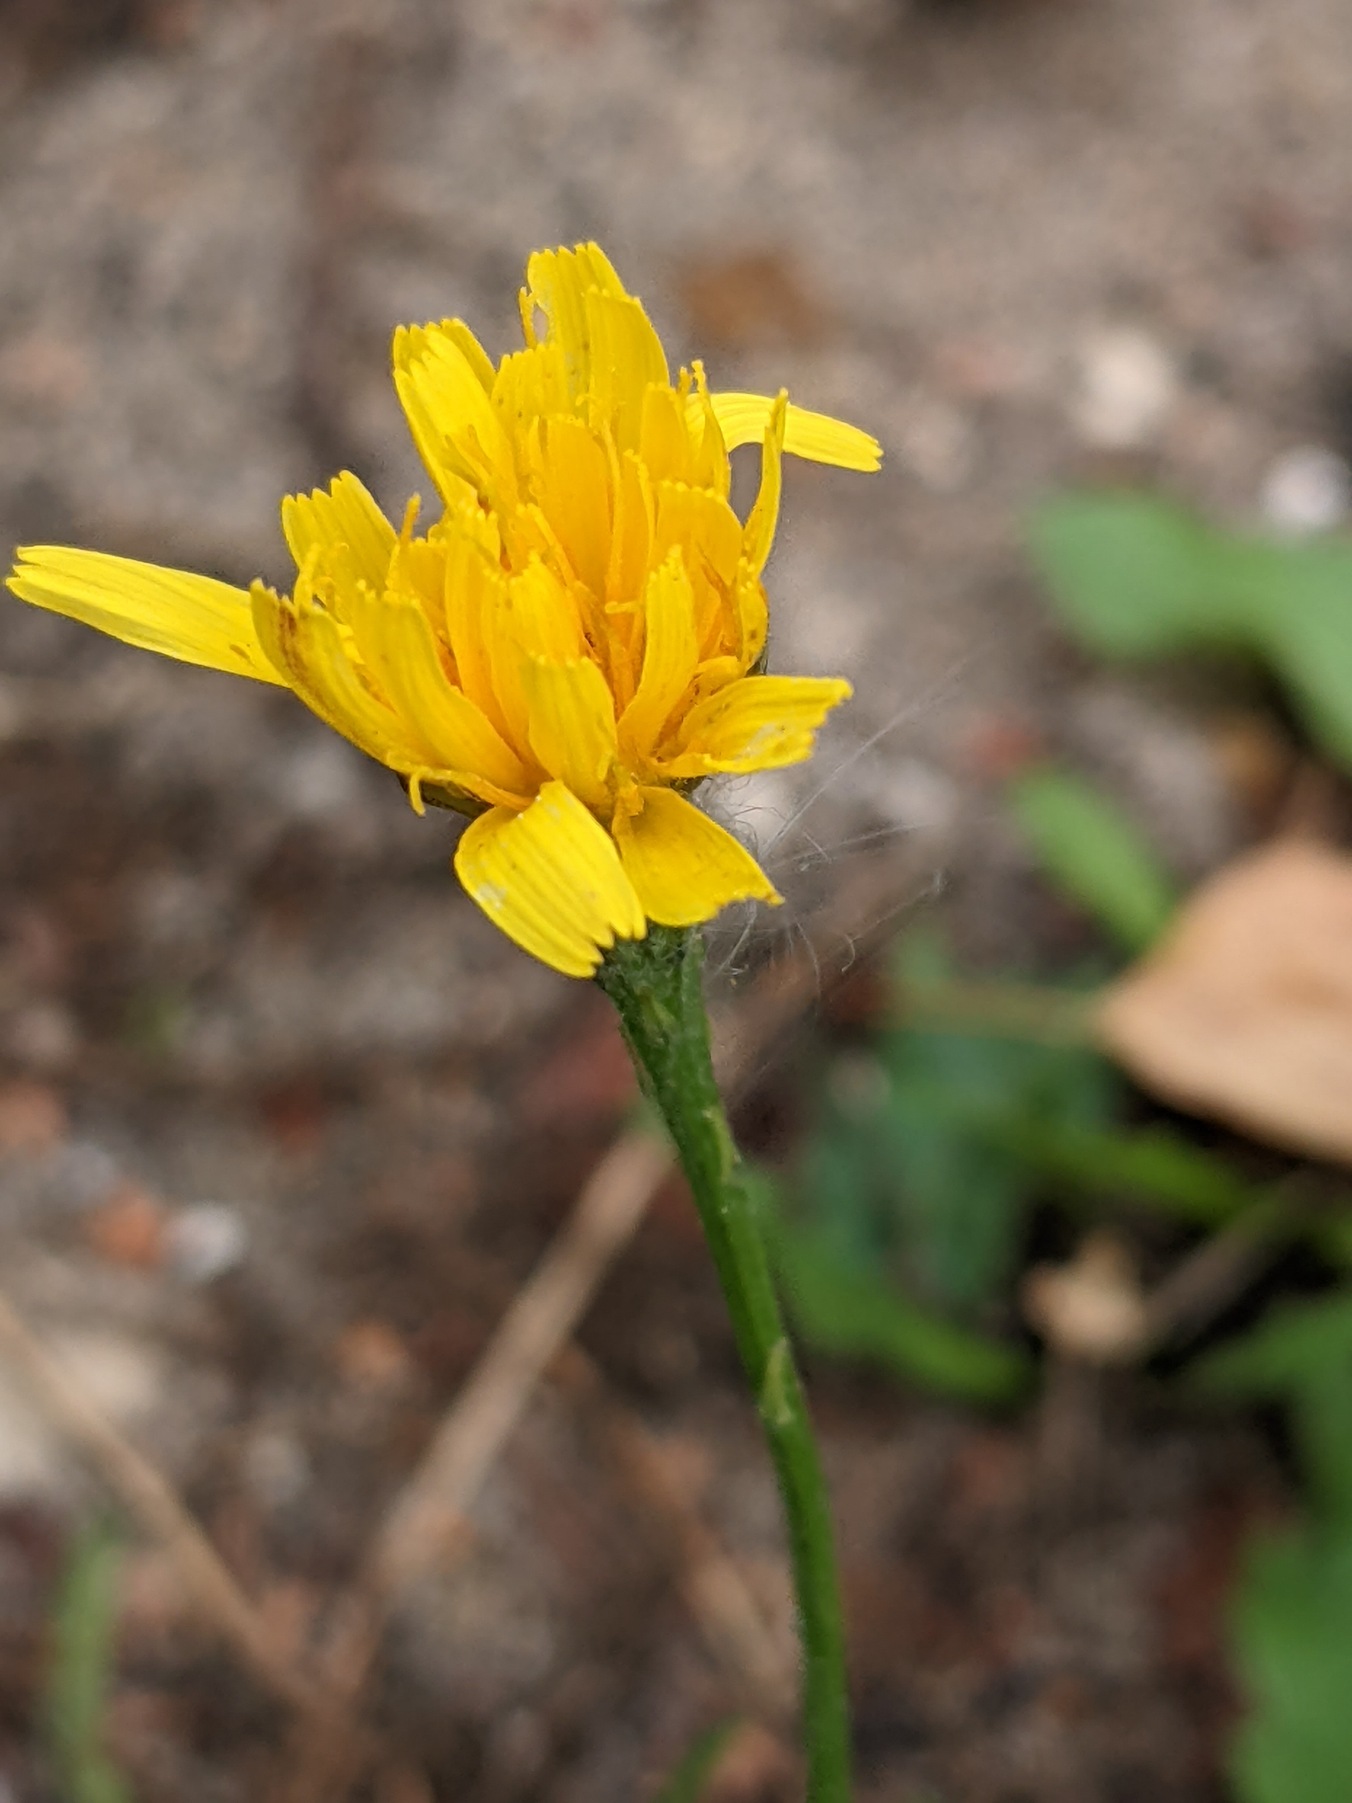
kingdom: Plantae
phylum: Tracheophyta
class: Magnoliopsida
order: Asterales
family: Asteraceae
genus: Scorzoneroides
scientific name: Scorzoneroides autumnalis
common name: Høst-borst
